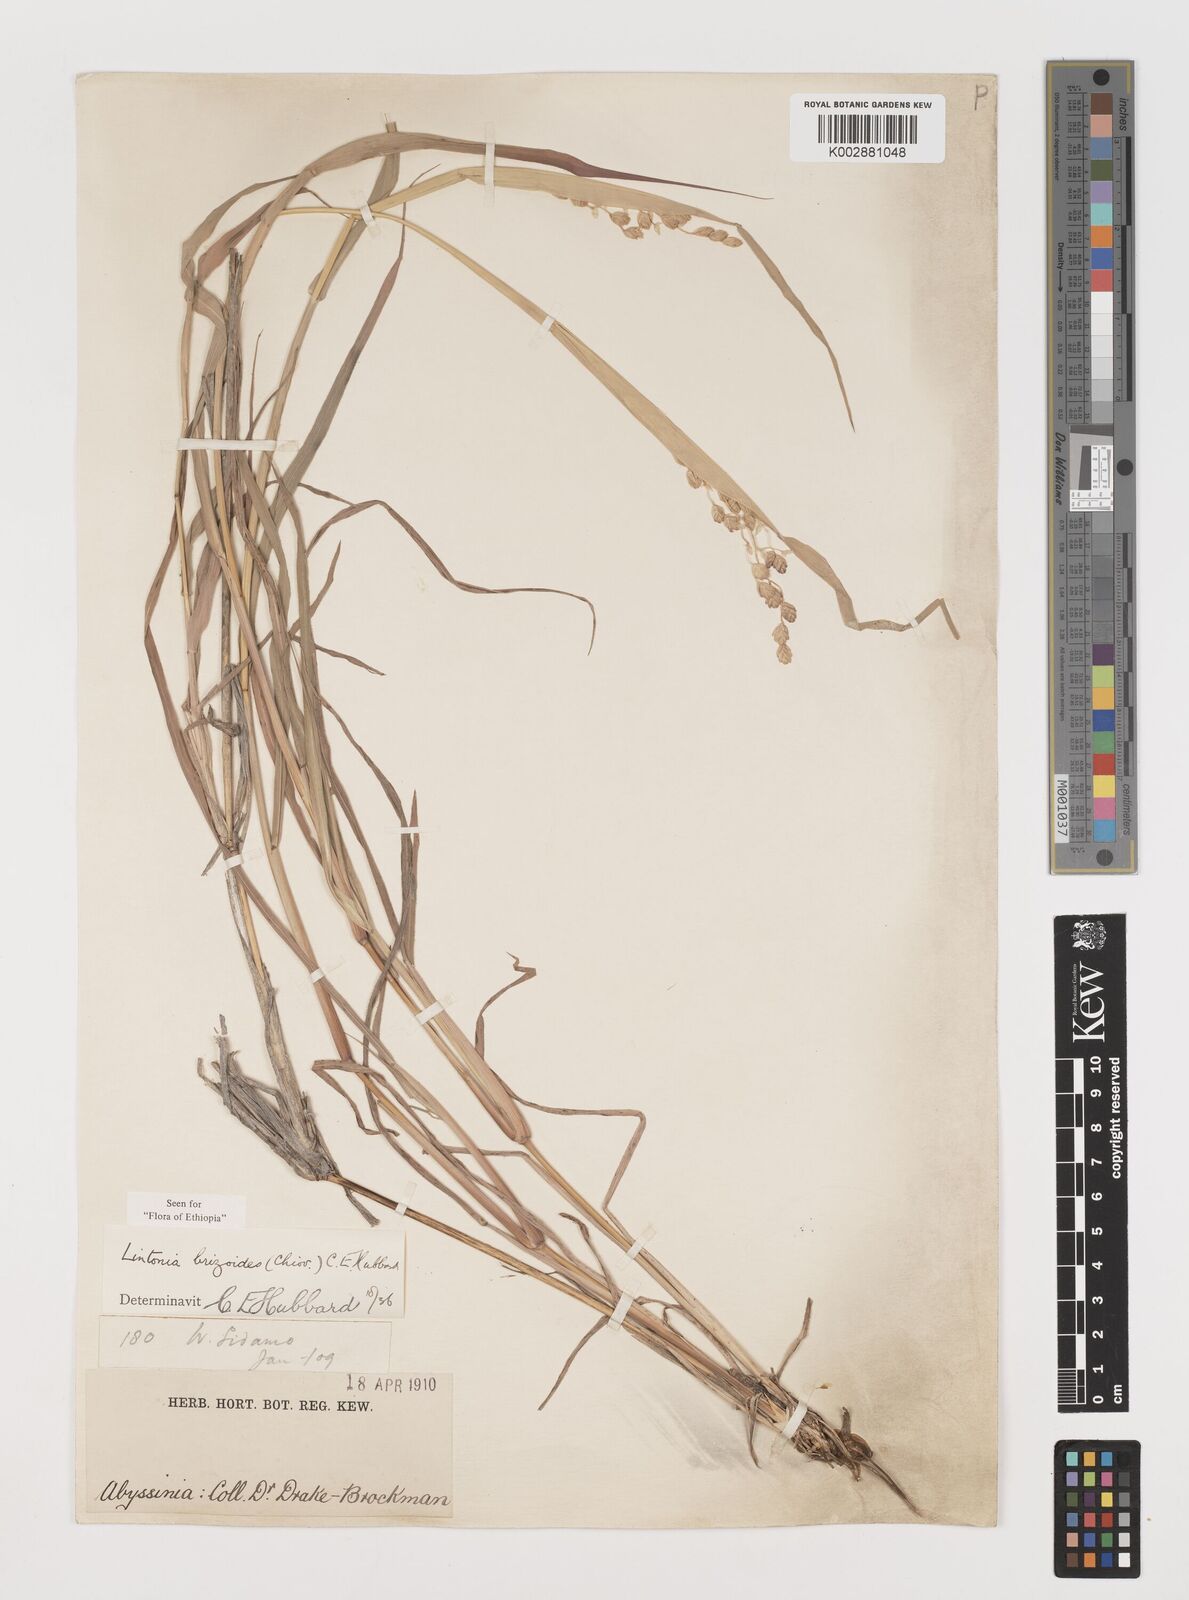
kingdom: Plantae
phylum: Tracheophyta
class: Liliopsida
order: Poales
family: Poaceae
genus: Chloris
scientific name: Chloris Lintonia brizoides
